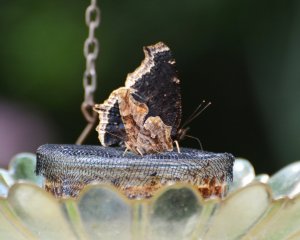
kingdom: Animalia
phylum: Arthropoda
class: Insecta
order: Lepidoptera
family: Nymphalidae
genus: Nymphalis
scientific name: Nymphalis antiopa
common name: Mourning Cloak
